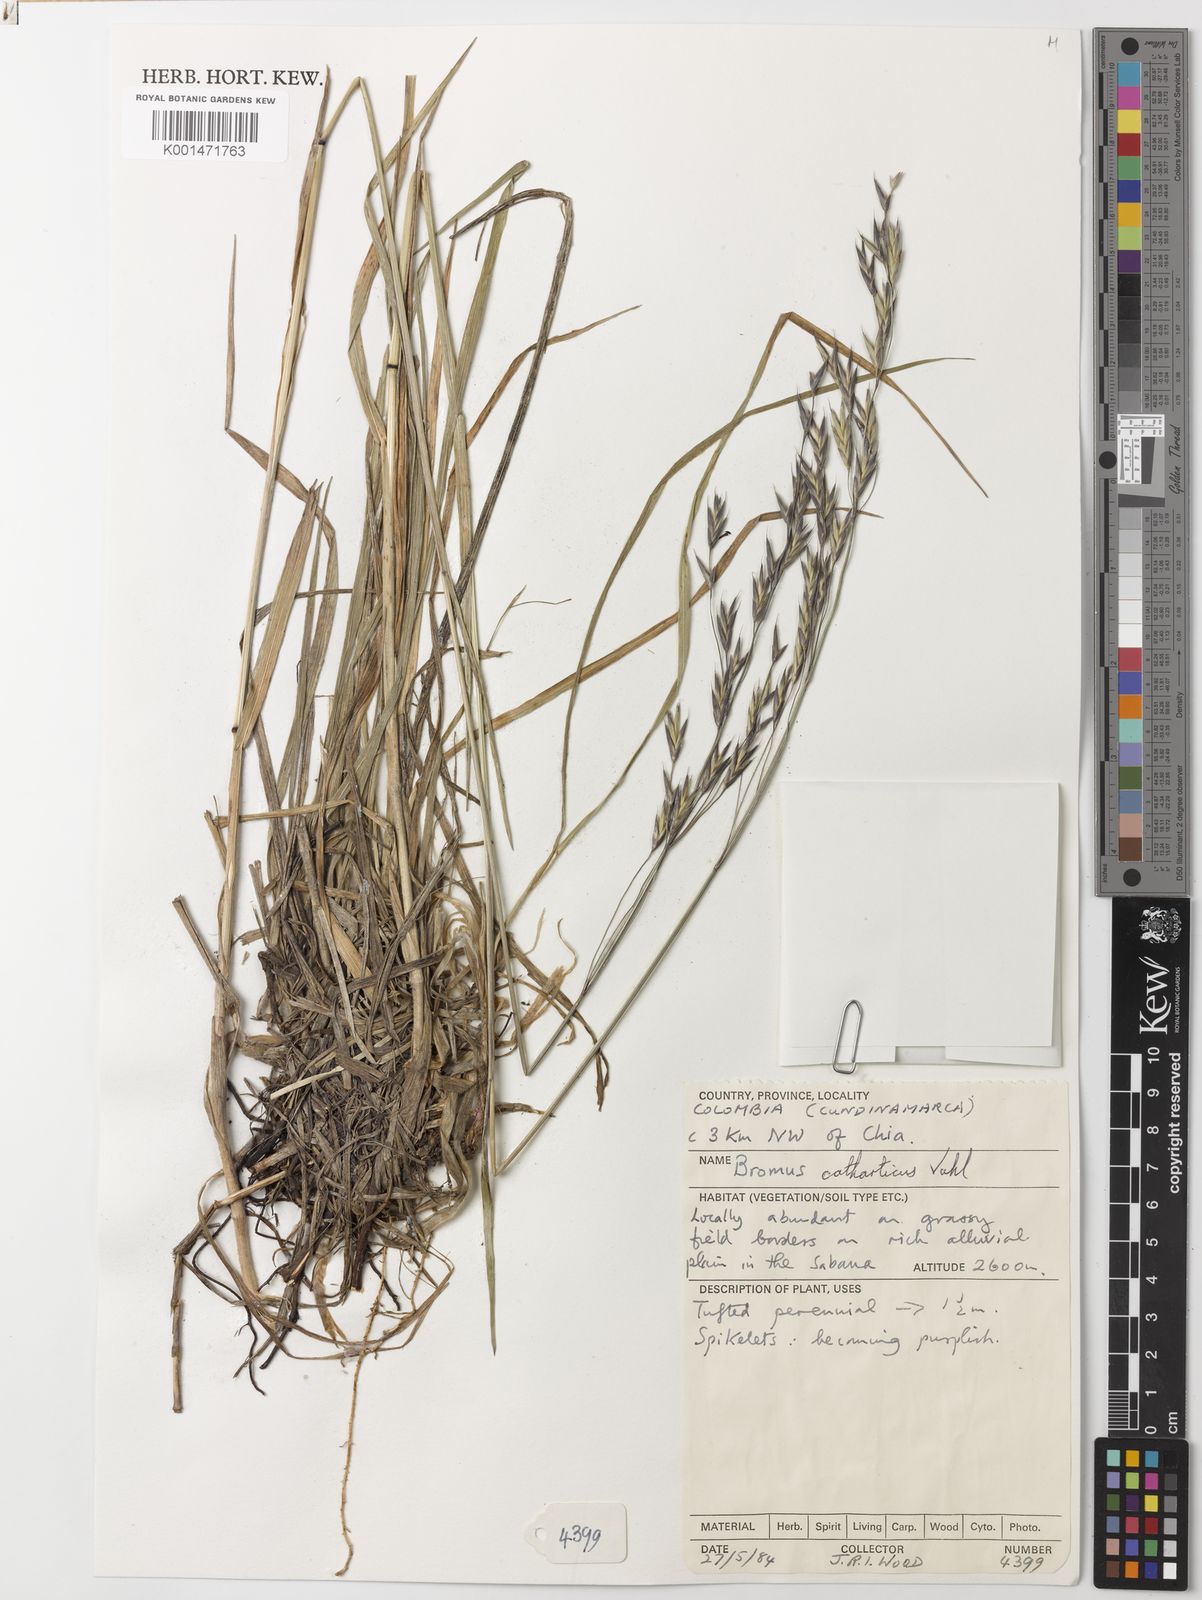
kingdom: Plantae
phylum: Tracheophyta
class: Liliopsida
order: Poales
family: Poaceae
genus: Bromus
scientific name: Bromus catharticus
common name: Rescuegrass
